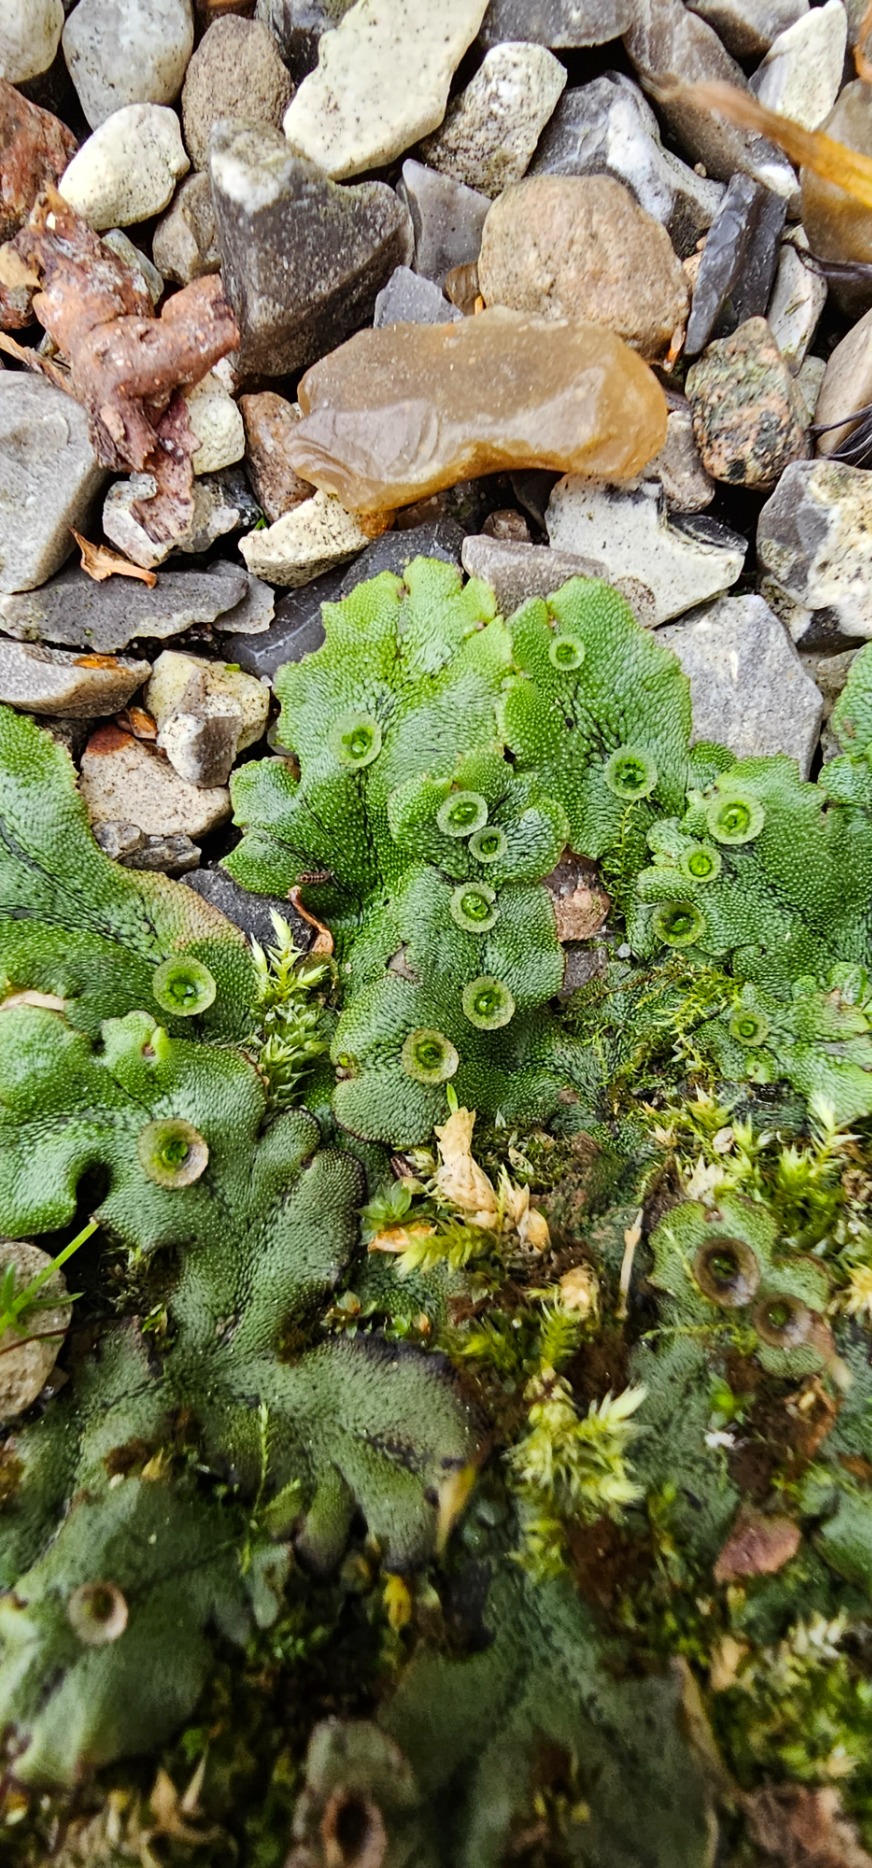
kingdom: Plantae
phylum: Marchantiophyta
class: Marchantiopsida
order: Marchantiales
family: Marchantiaceae
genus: Marchantia
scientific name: Marchantia polymorpha
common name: Almindelig lungemos (underart)
